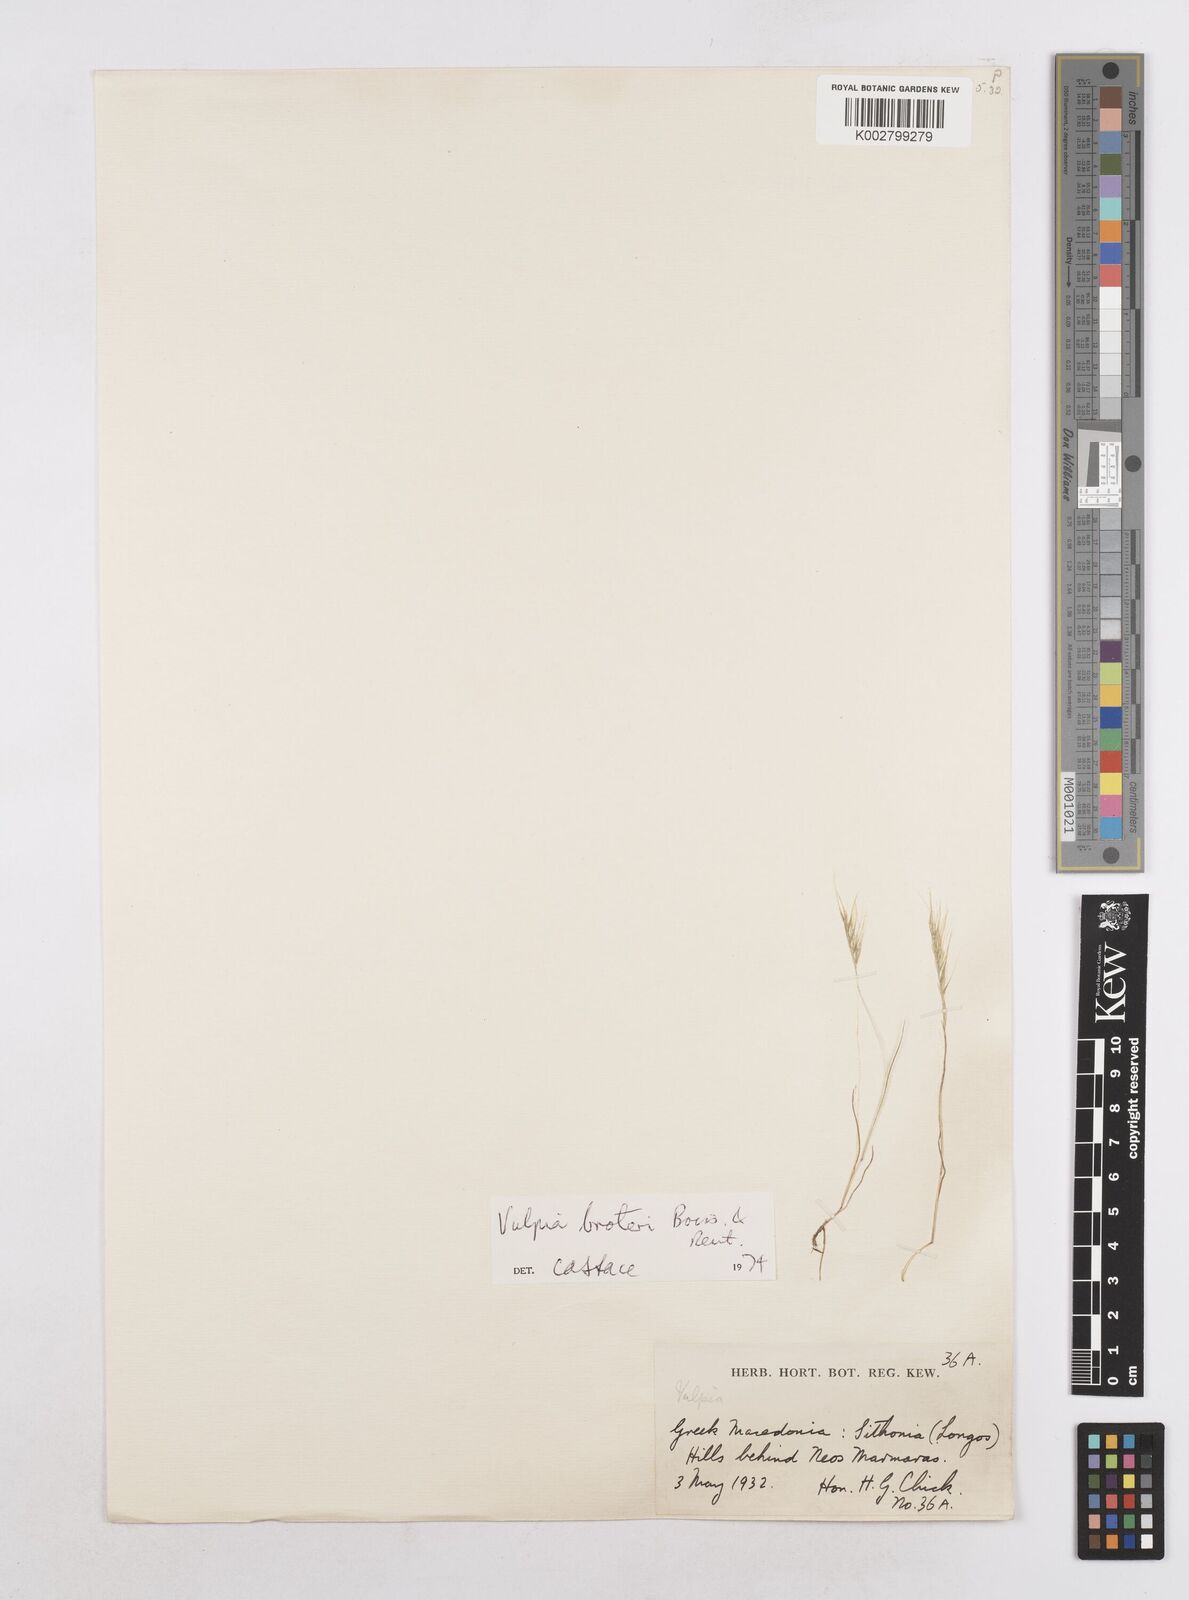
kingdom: Plantae
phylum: Tracheophyta
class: Liliopsida
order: Poales
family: Poaceae
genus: Festuca
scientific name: Festuca muralis
